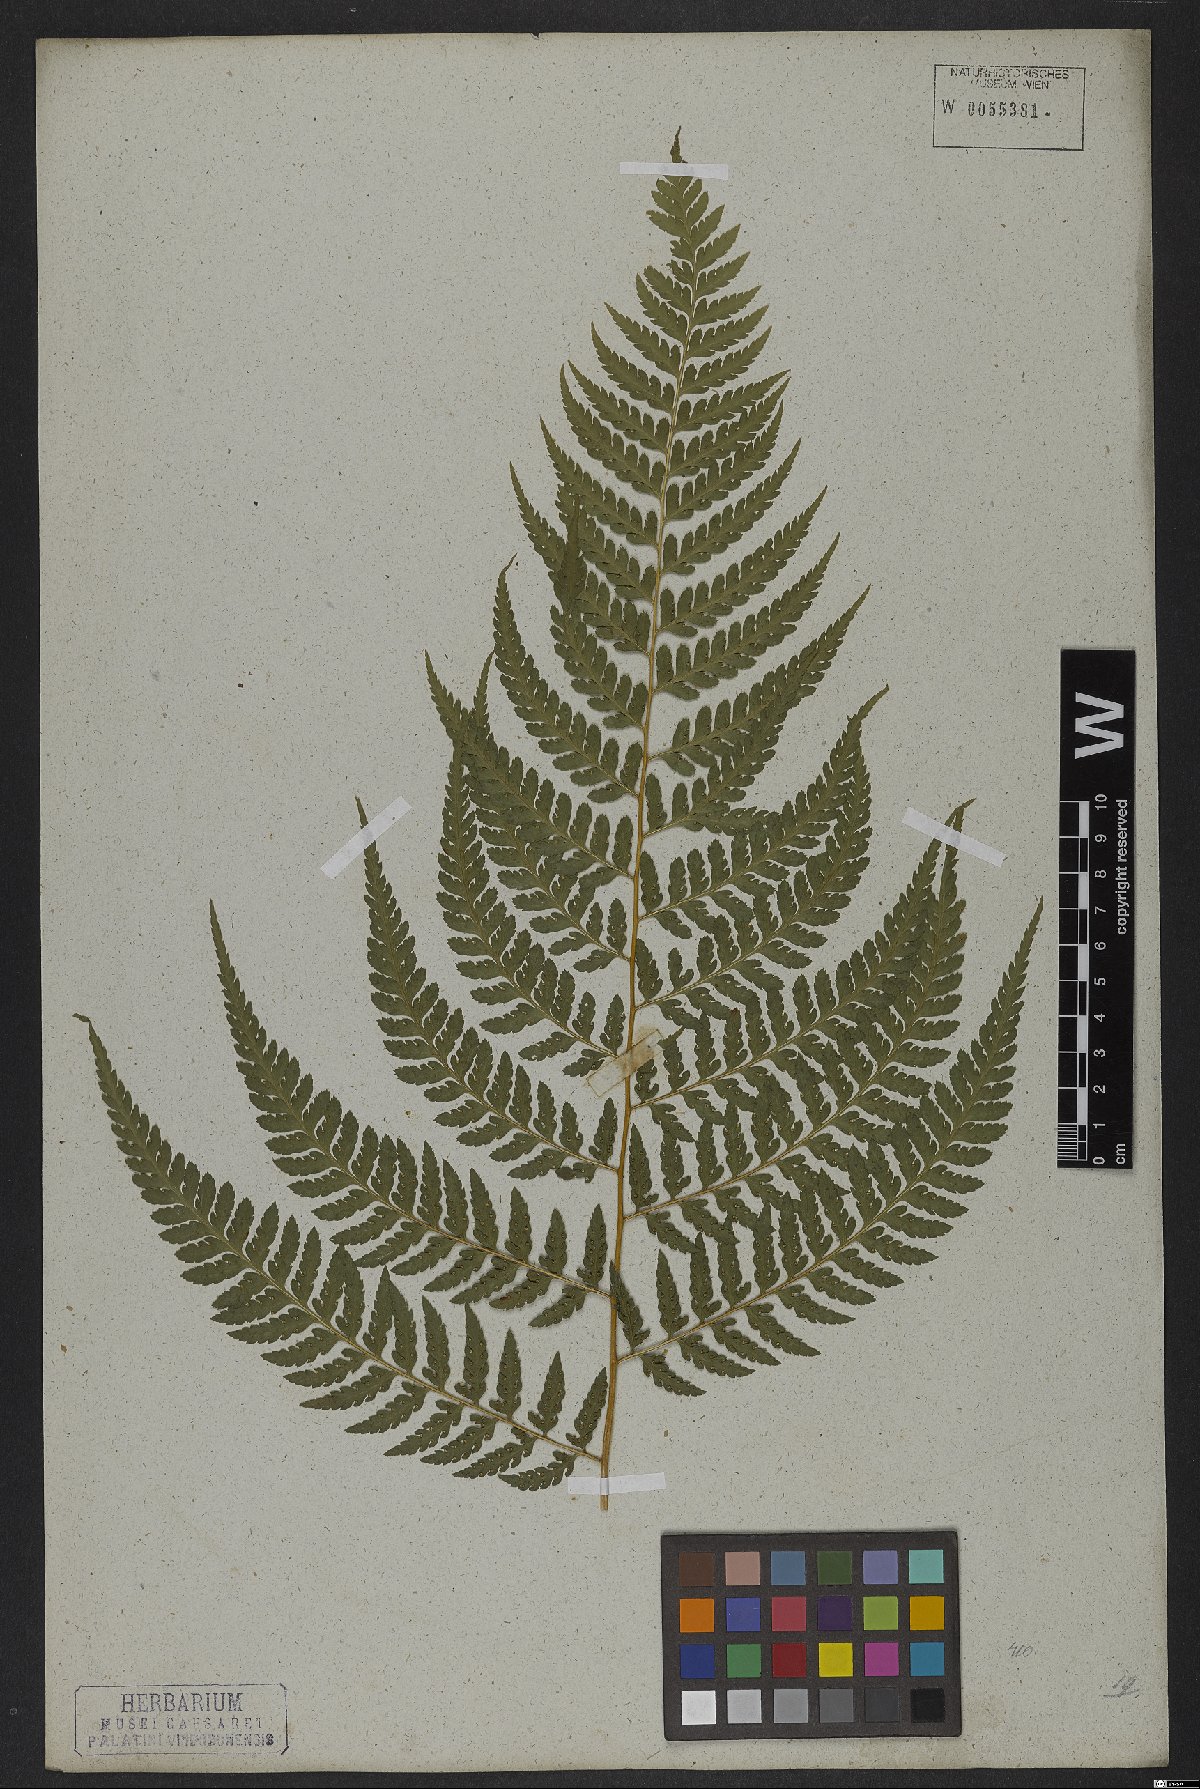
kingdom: Plantae
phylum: Tracheophyta
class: Polypodiopsida
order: Polypodiales
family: Dennstaedtiaceae
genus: Dennstaedtia
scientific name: Dennstaedtia cicutaria
